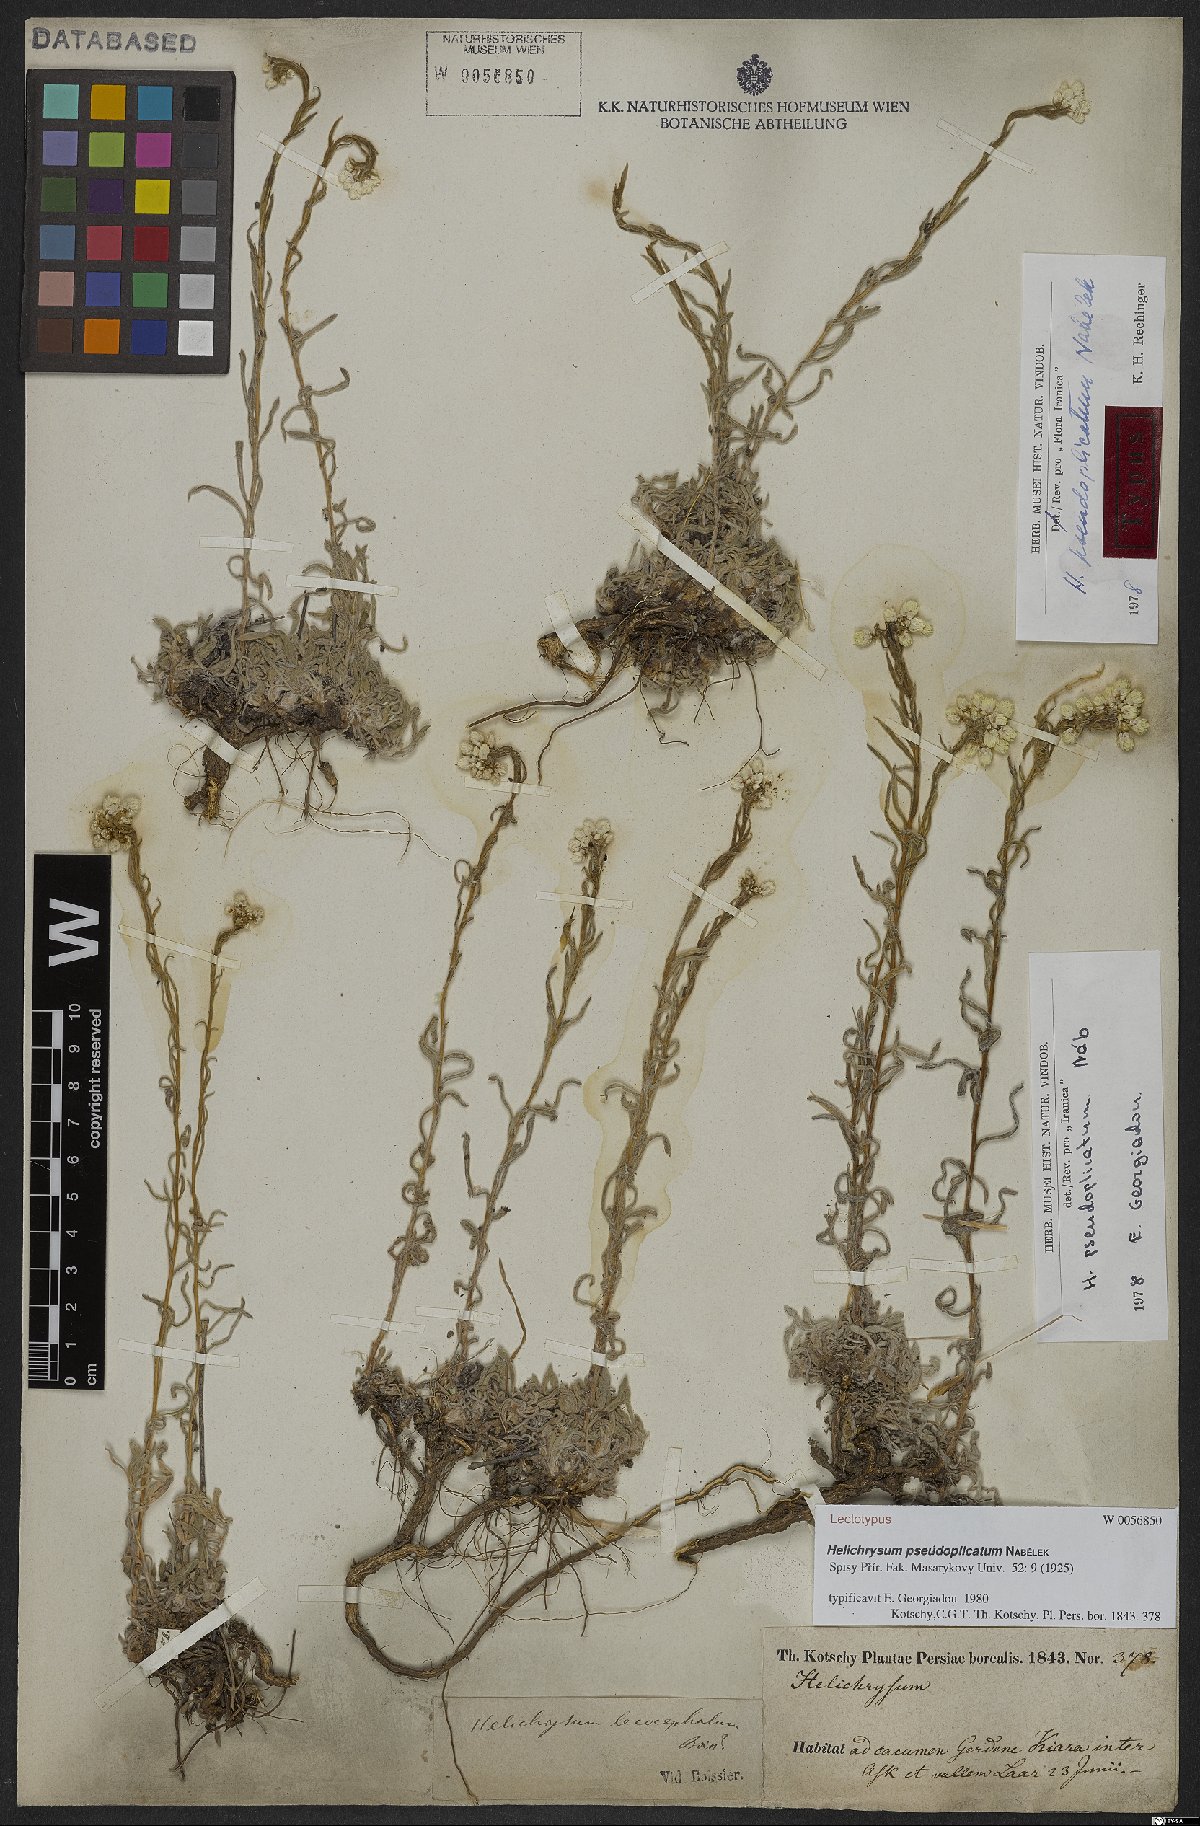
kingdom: Plantae
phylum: Tracheophyta
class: Magnoliopsida
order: Asterales
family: Asteraceae
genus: Helichrysum
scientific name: Helichrysum plicatum
